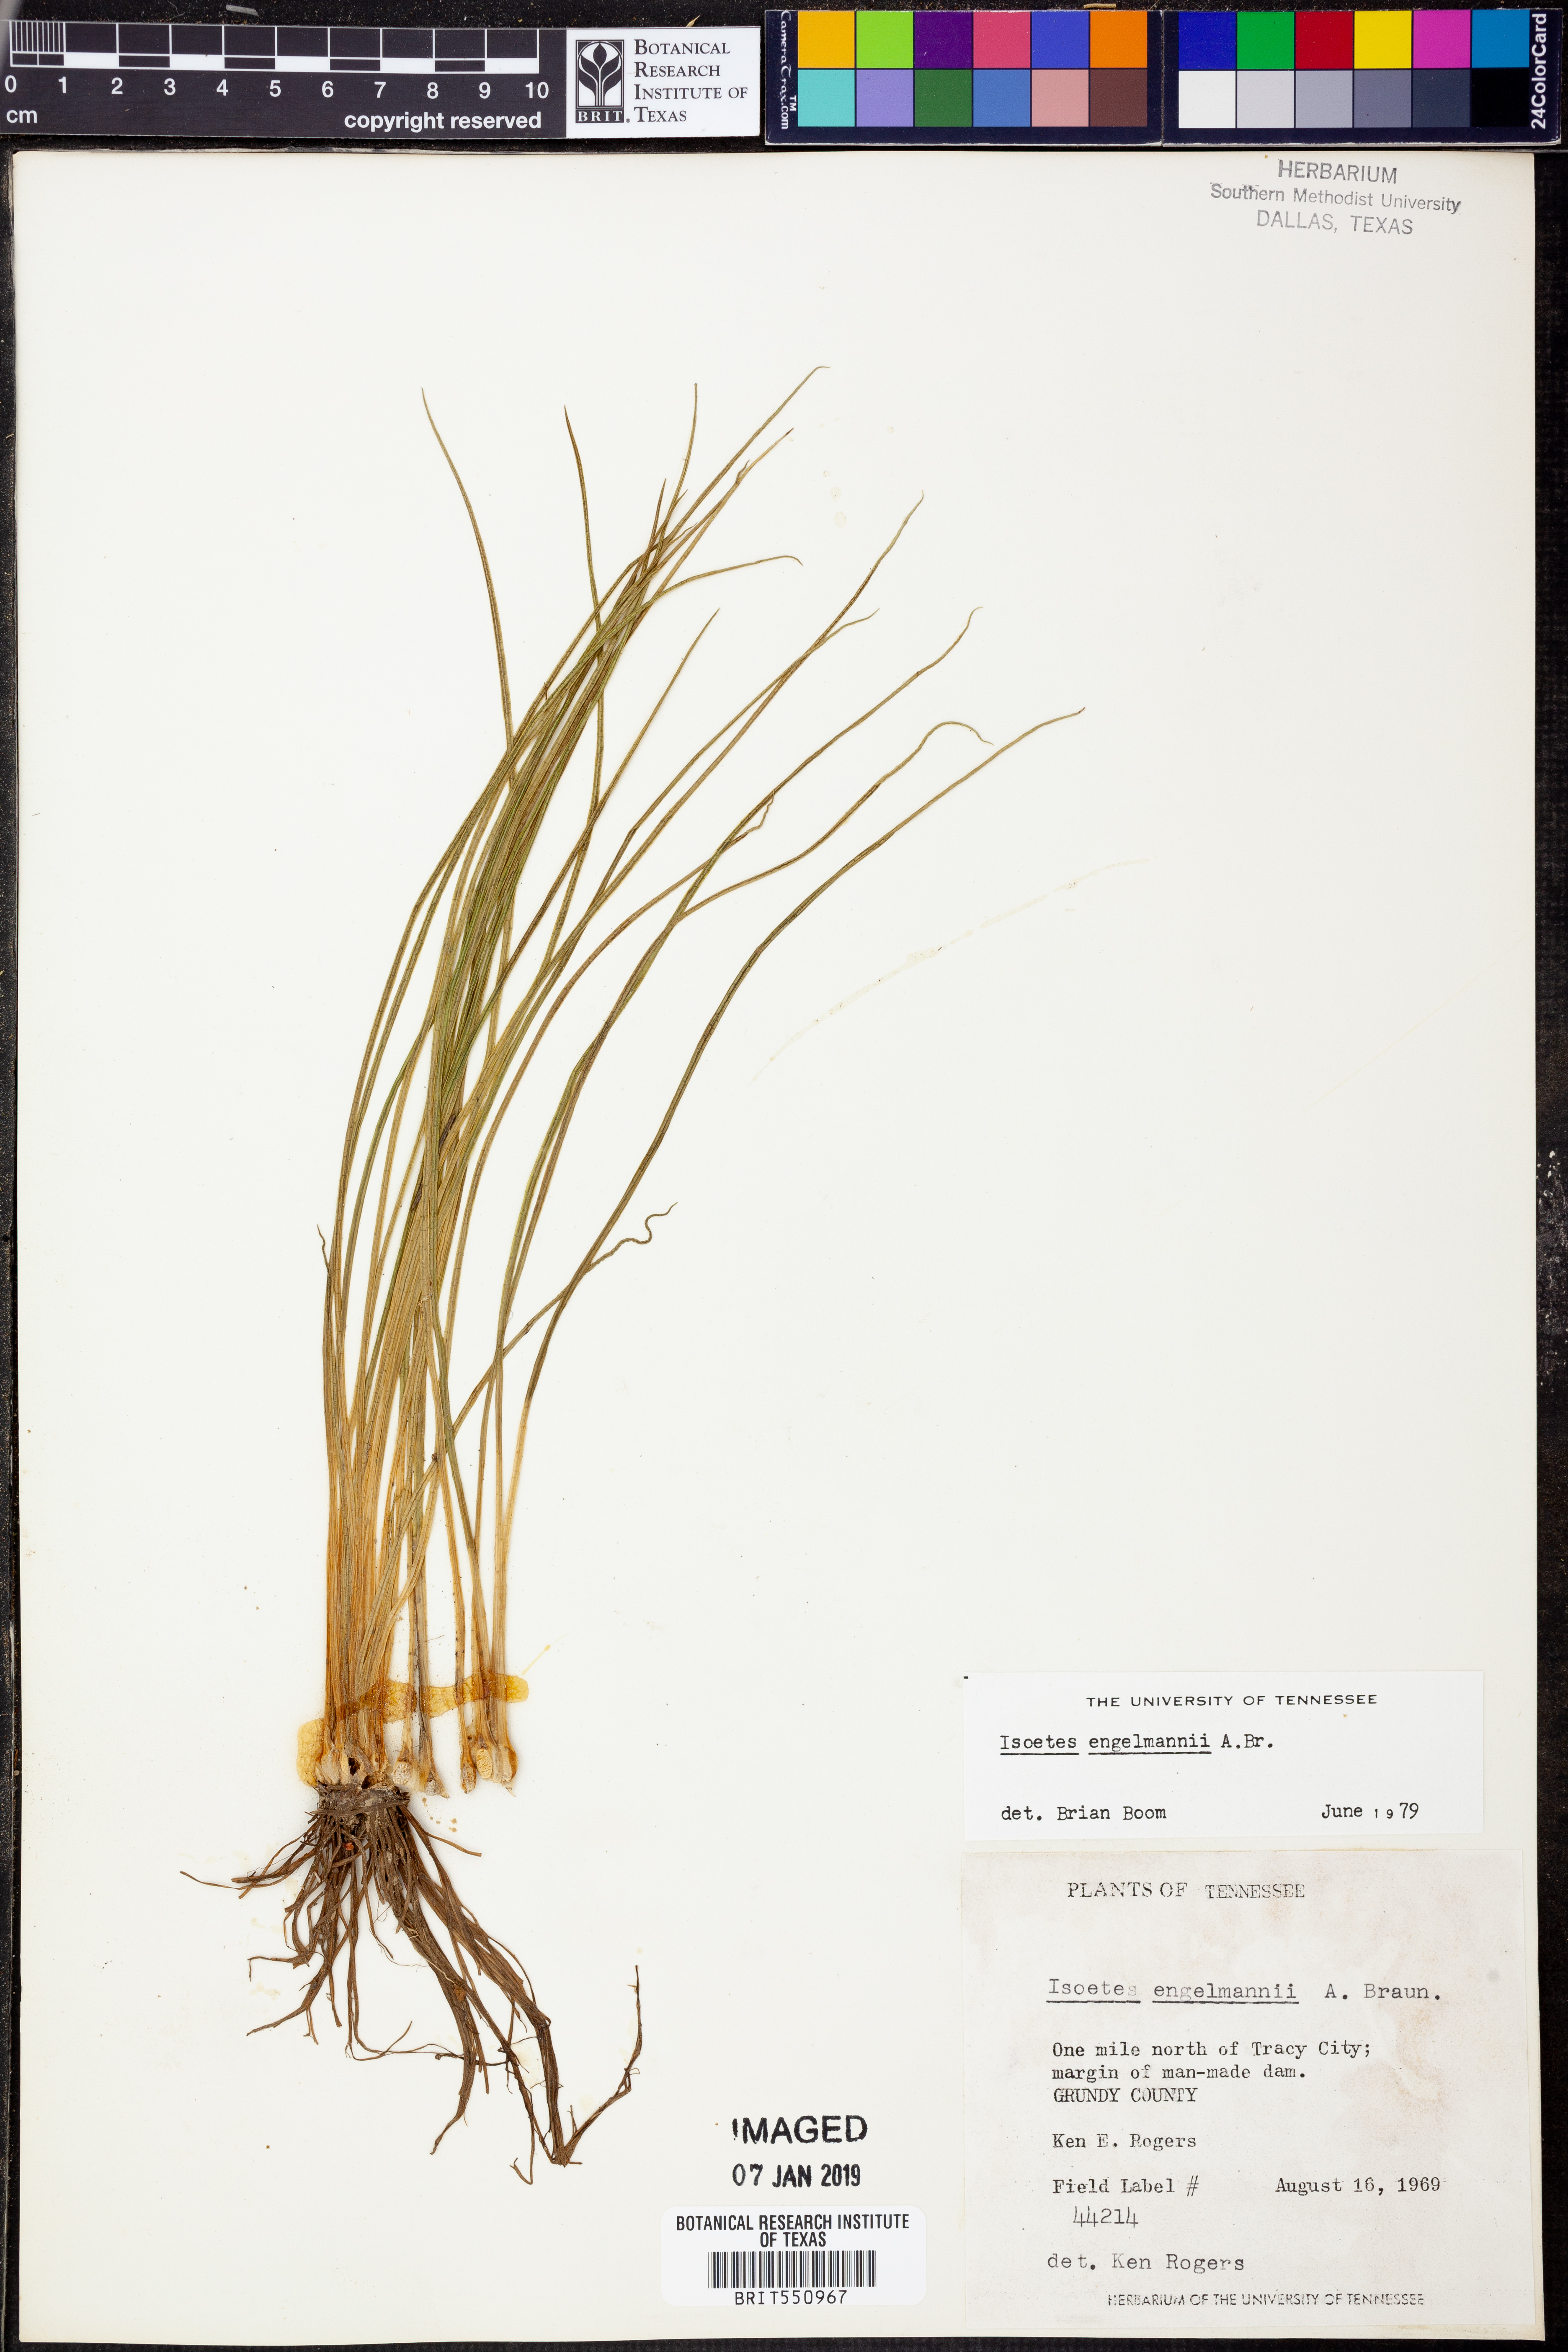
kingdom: Plantae
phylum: Tracheophyta
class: Lycopodiopsida
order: Isoetales
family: Isoetaceae
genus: Isoetes
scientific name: Isoetes engelmannii
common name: Engelmann's quillwort
